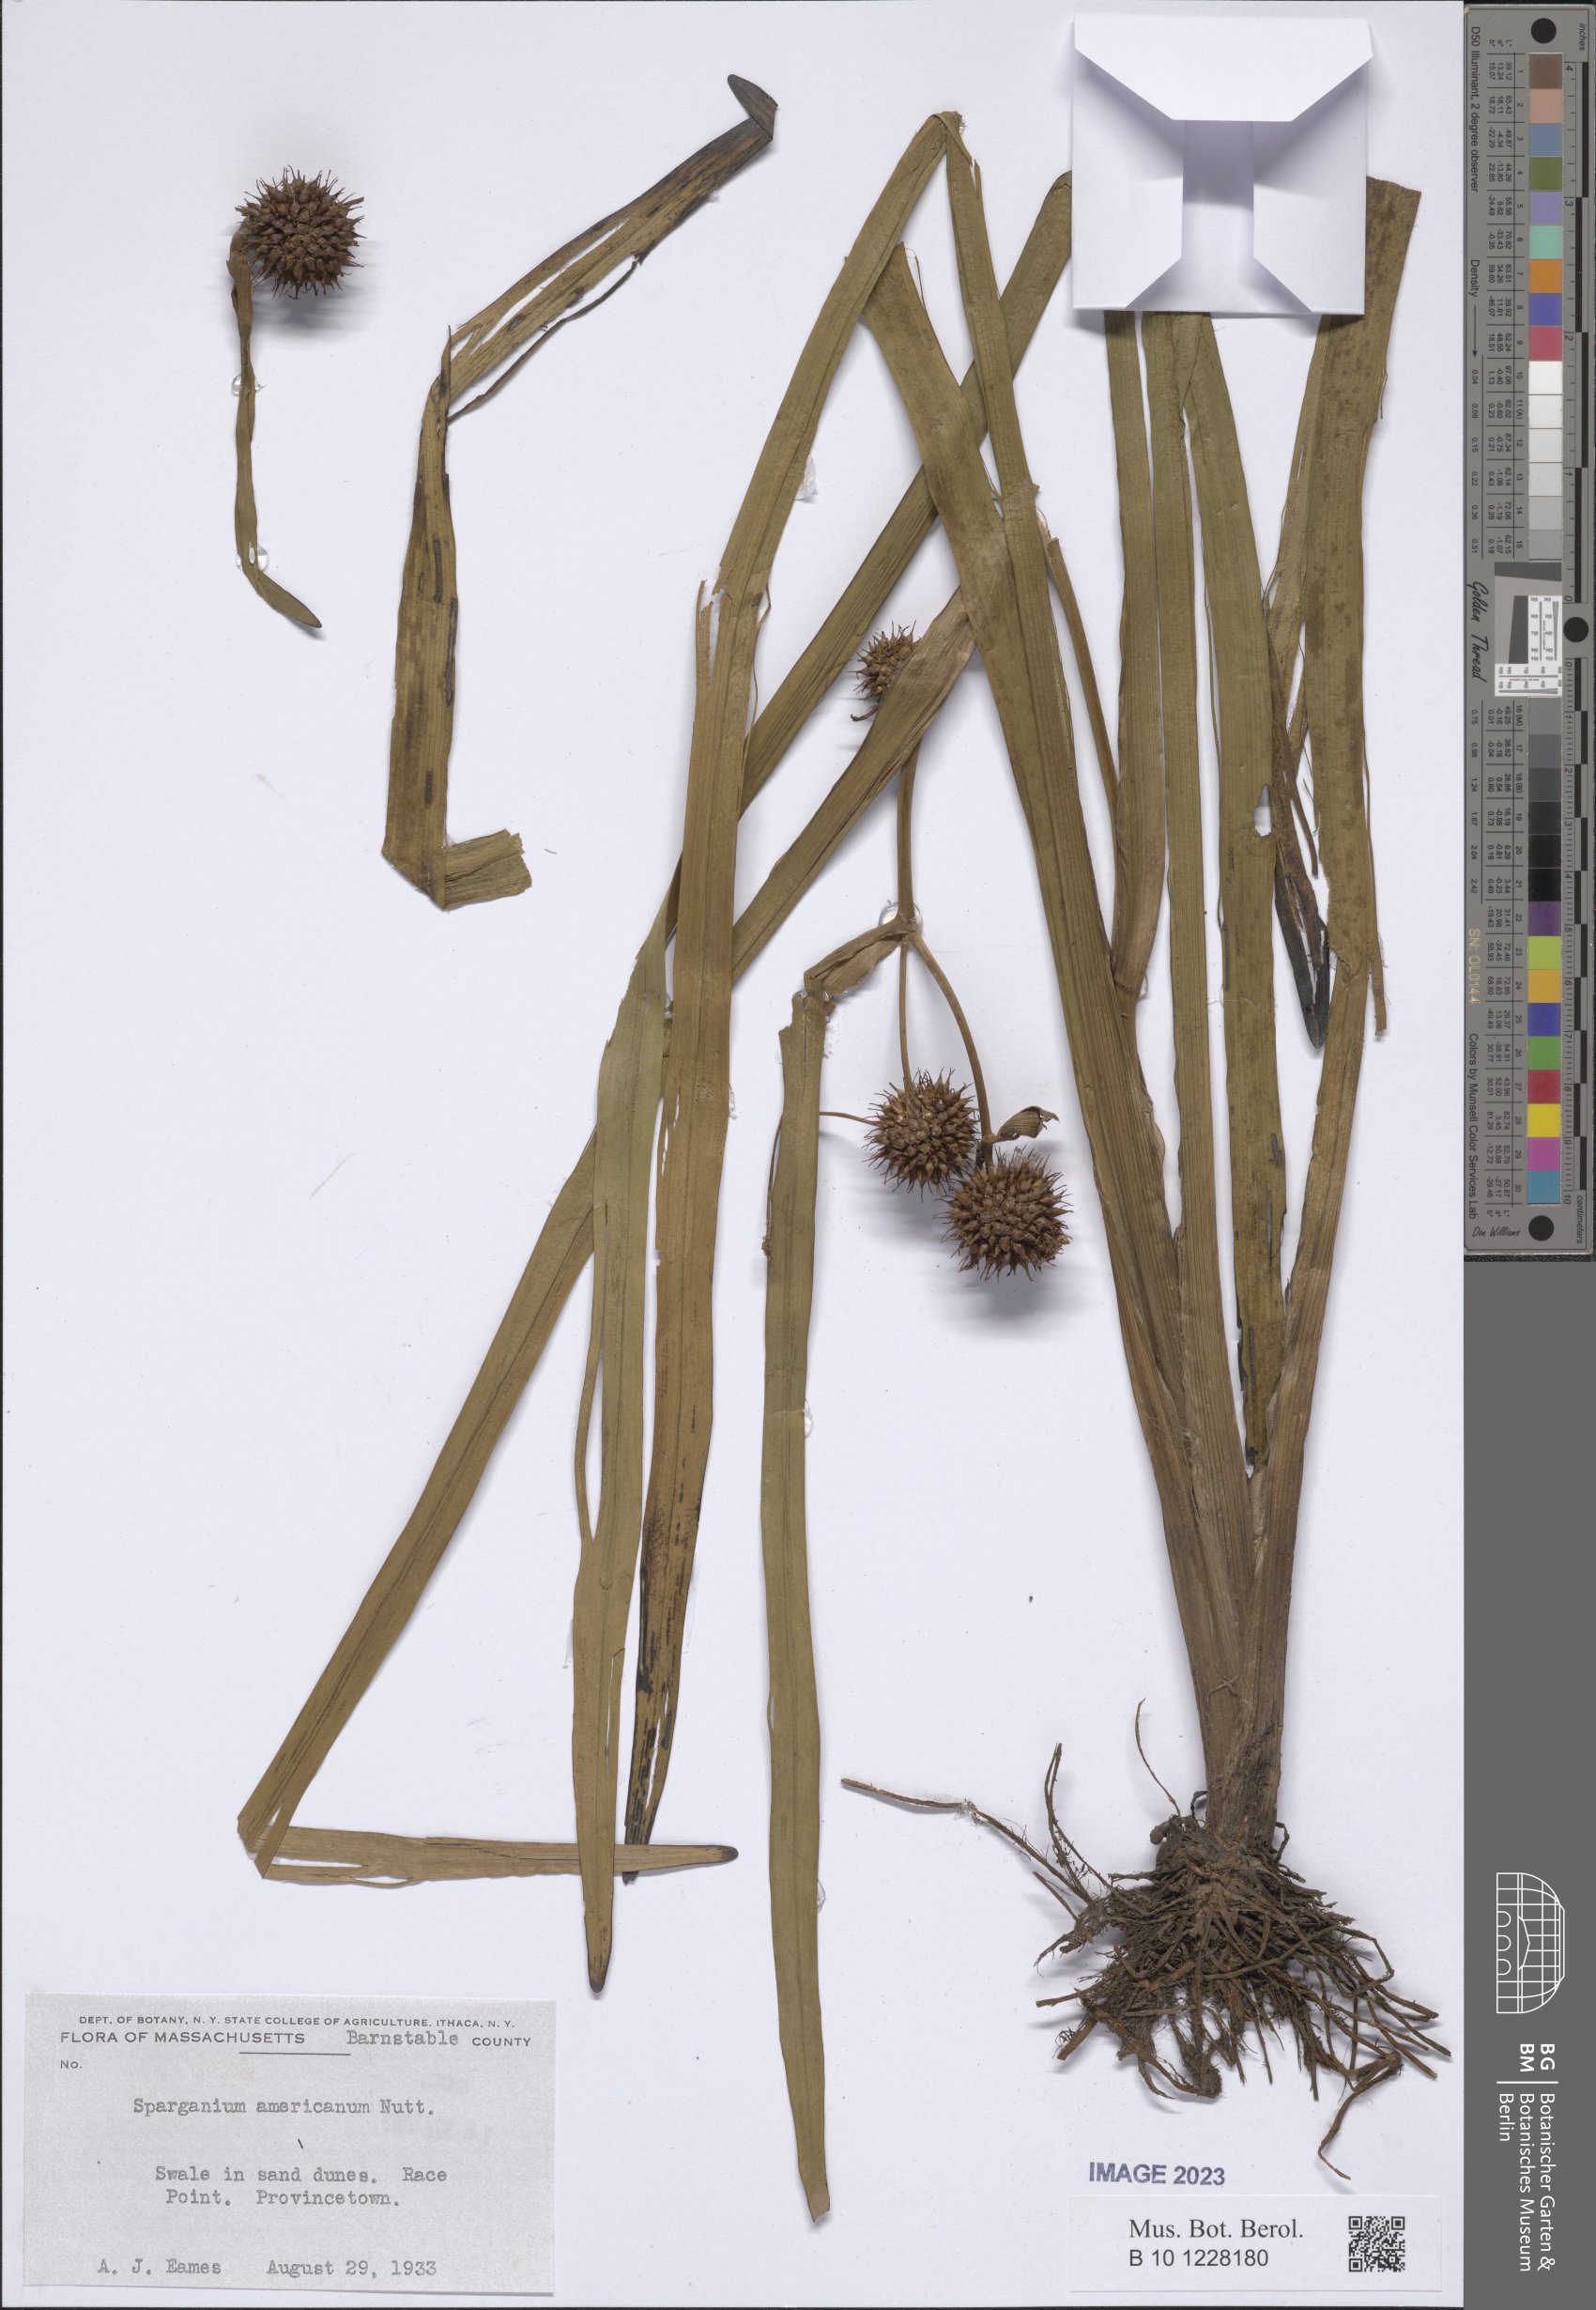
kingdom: Plantae
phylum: Tracheophyta
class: Liliopsida
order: Poales
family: Typhaceae
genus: Sparganium
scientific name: Sparganium americanum
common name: American burreed
